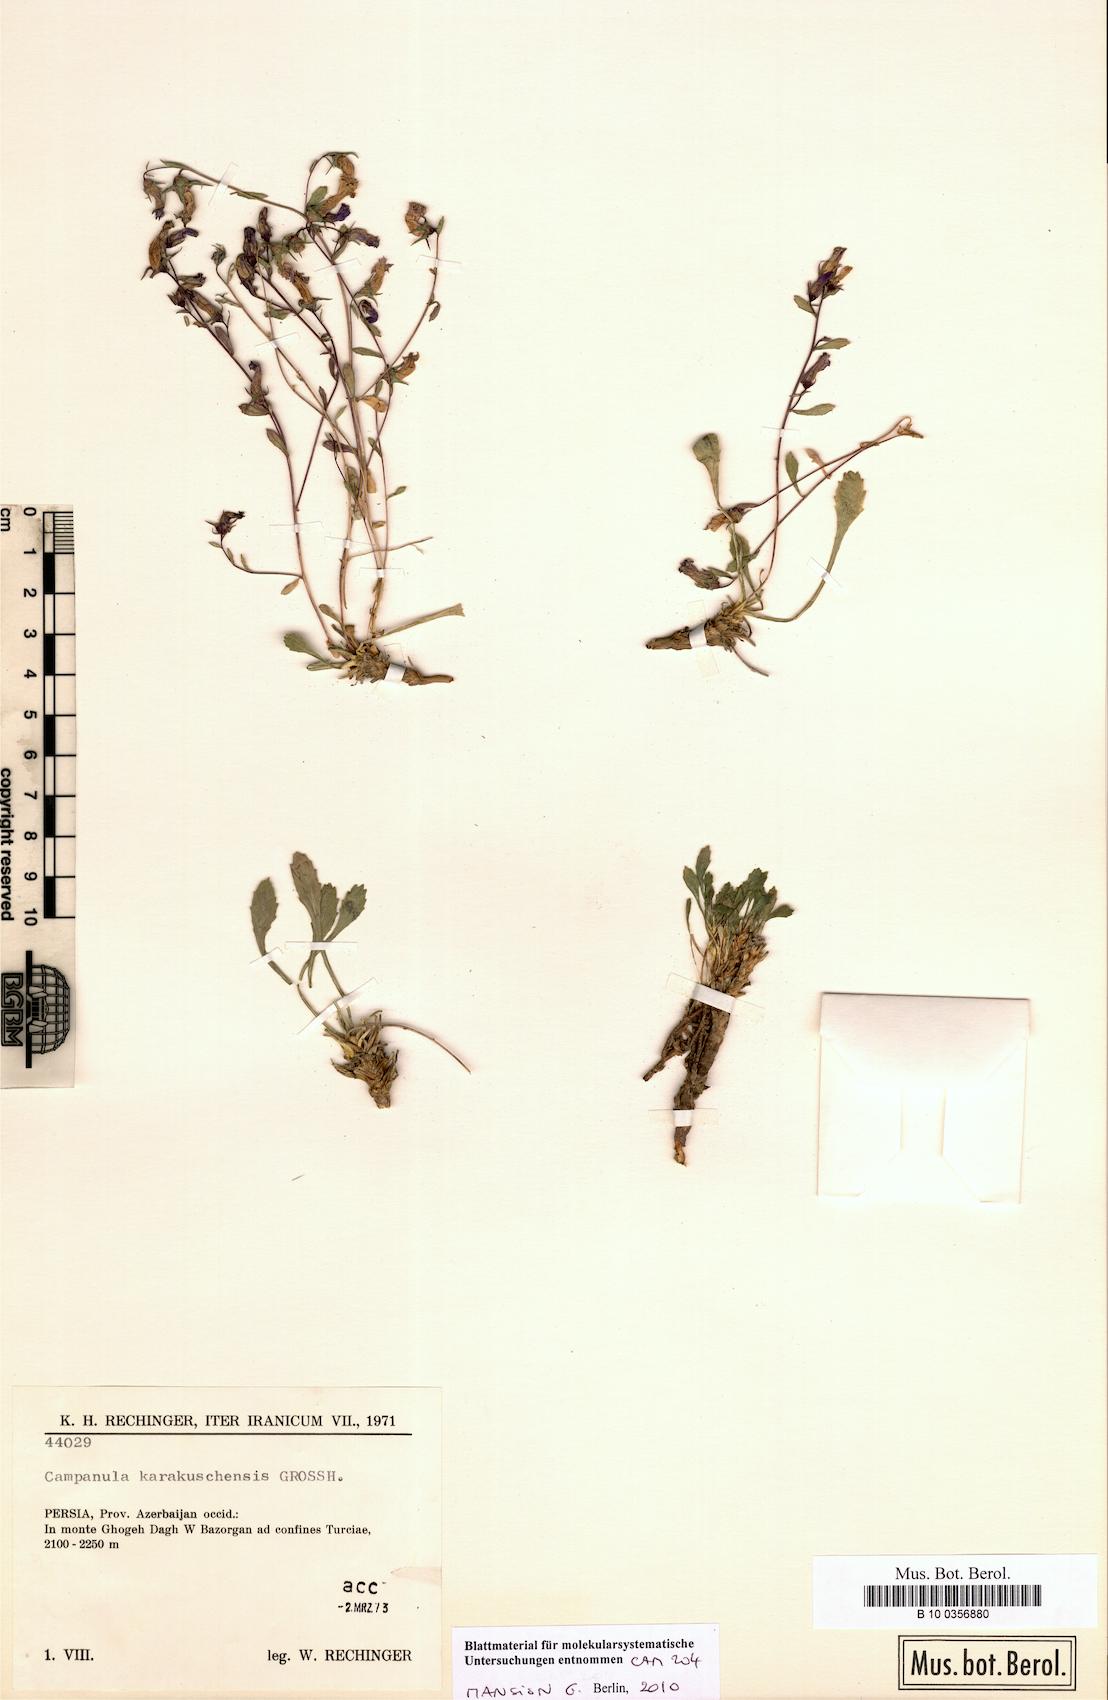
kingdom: Plantae
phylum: Tracheophyta
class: Magnoliopsida
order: Asterales
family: Campanulaceae
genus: Campanula
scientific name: Campanula karakuschensis
